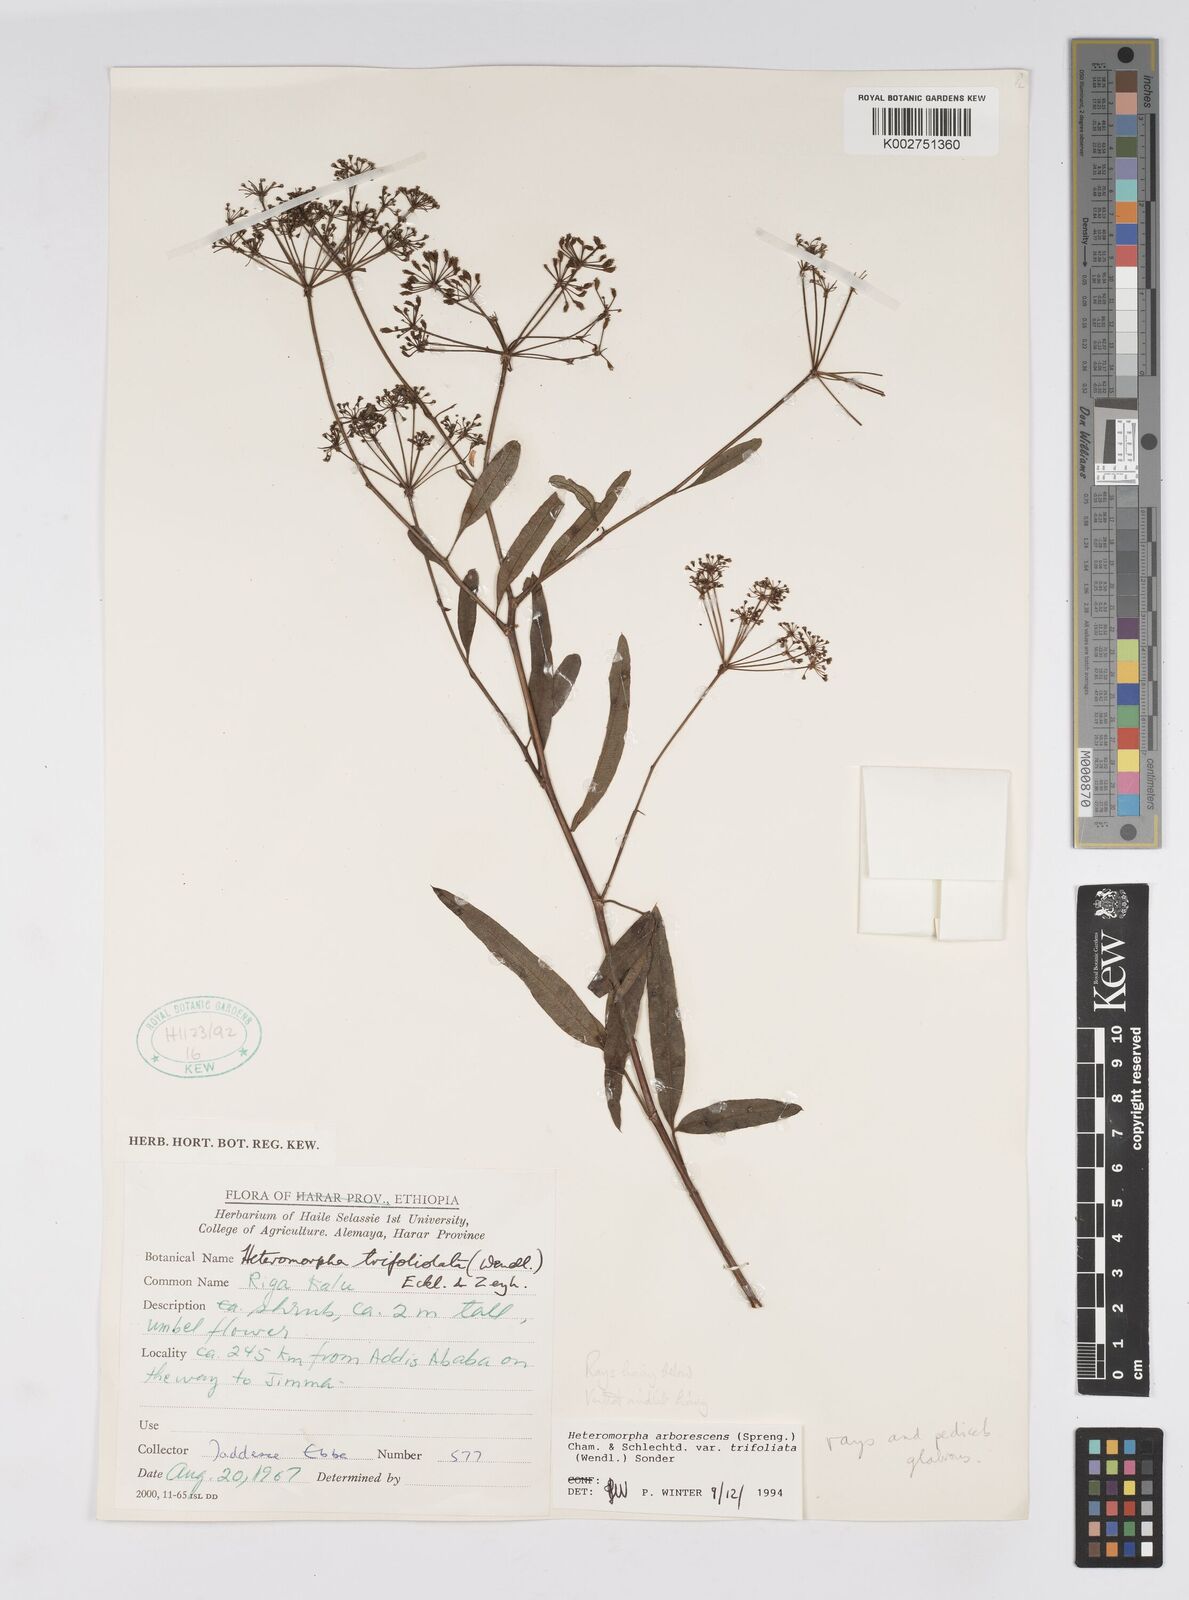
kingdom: Plantae
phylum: Tracheophyta
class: Magnoliopsida
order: Apiales
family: Apiaceae
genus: Heteromorpha
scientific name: Heteromorpha arborescens
